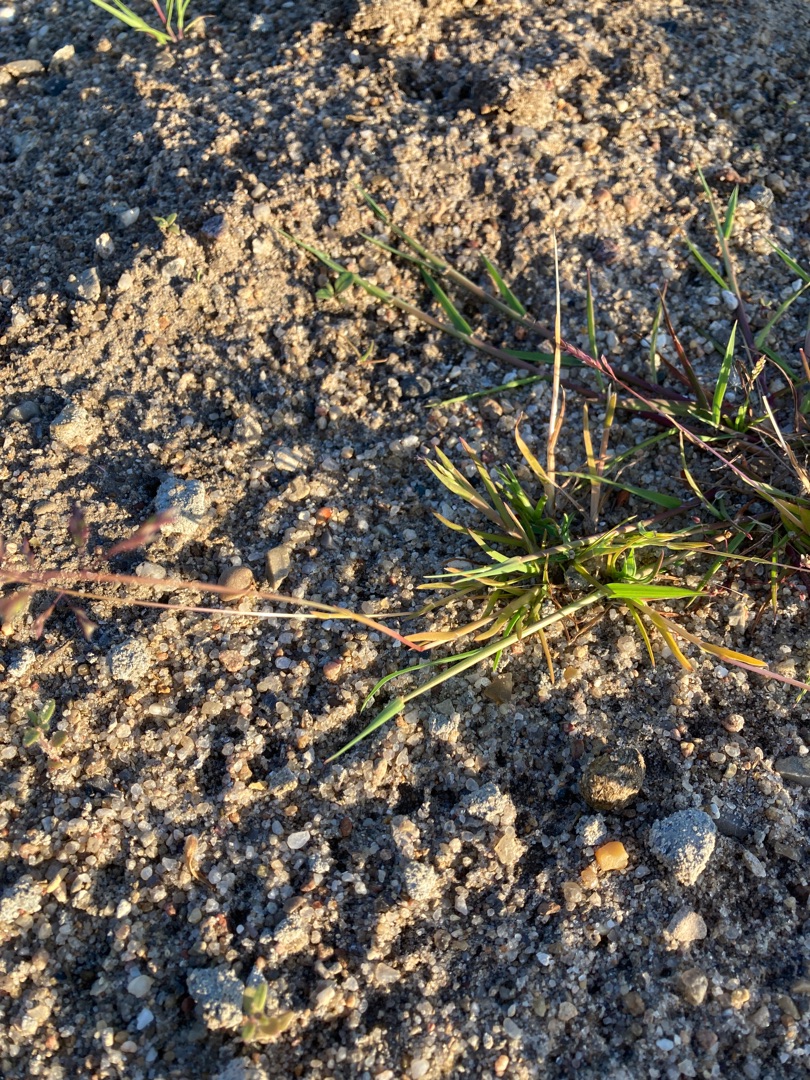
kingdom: Plantae
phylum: Tracheophyta
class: Liliopsida
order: Poales
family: Poaceae
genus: Poa
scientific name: Poa annua
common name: Enårig rapgræs
